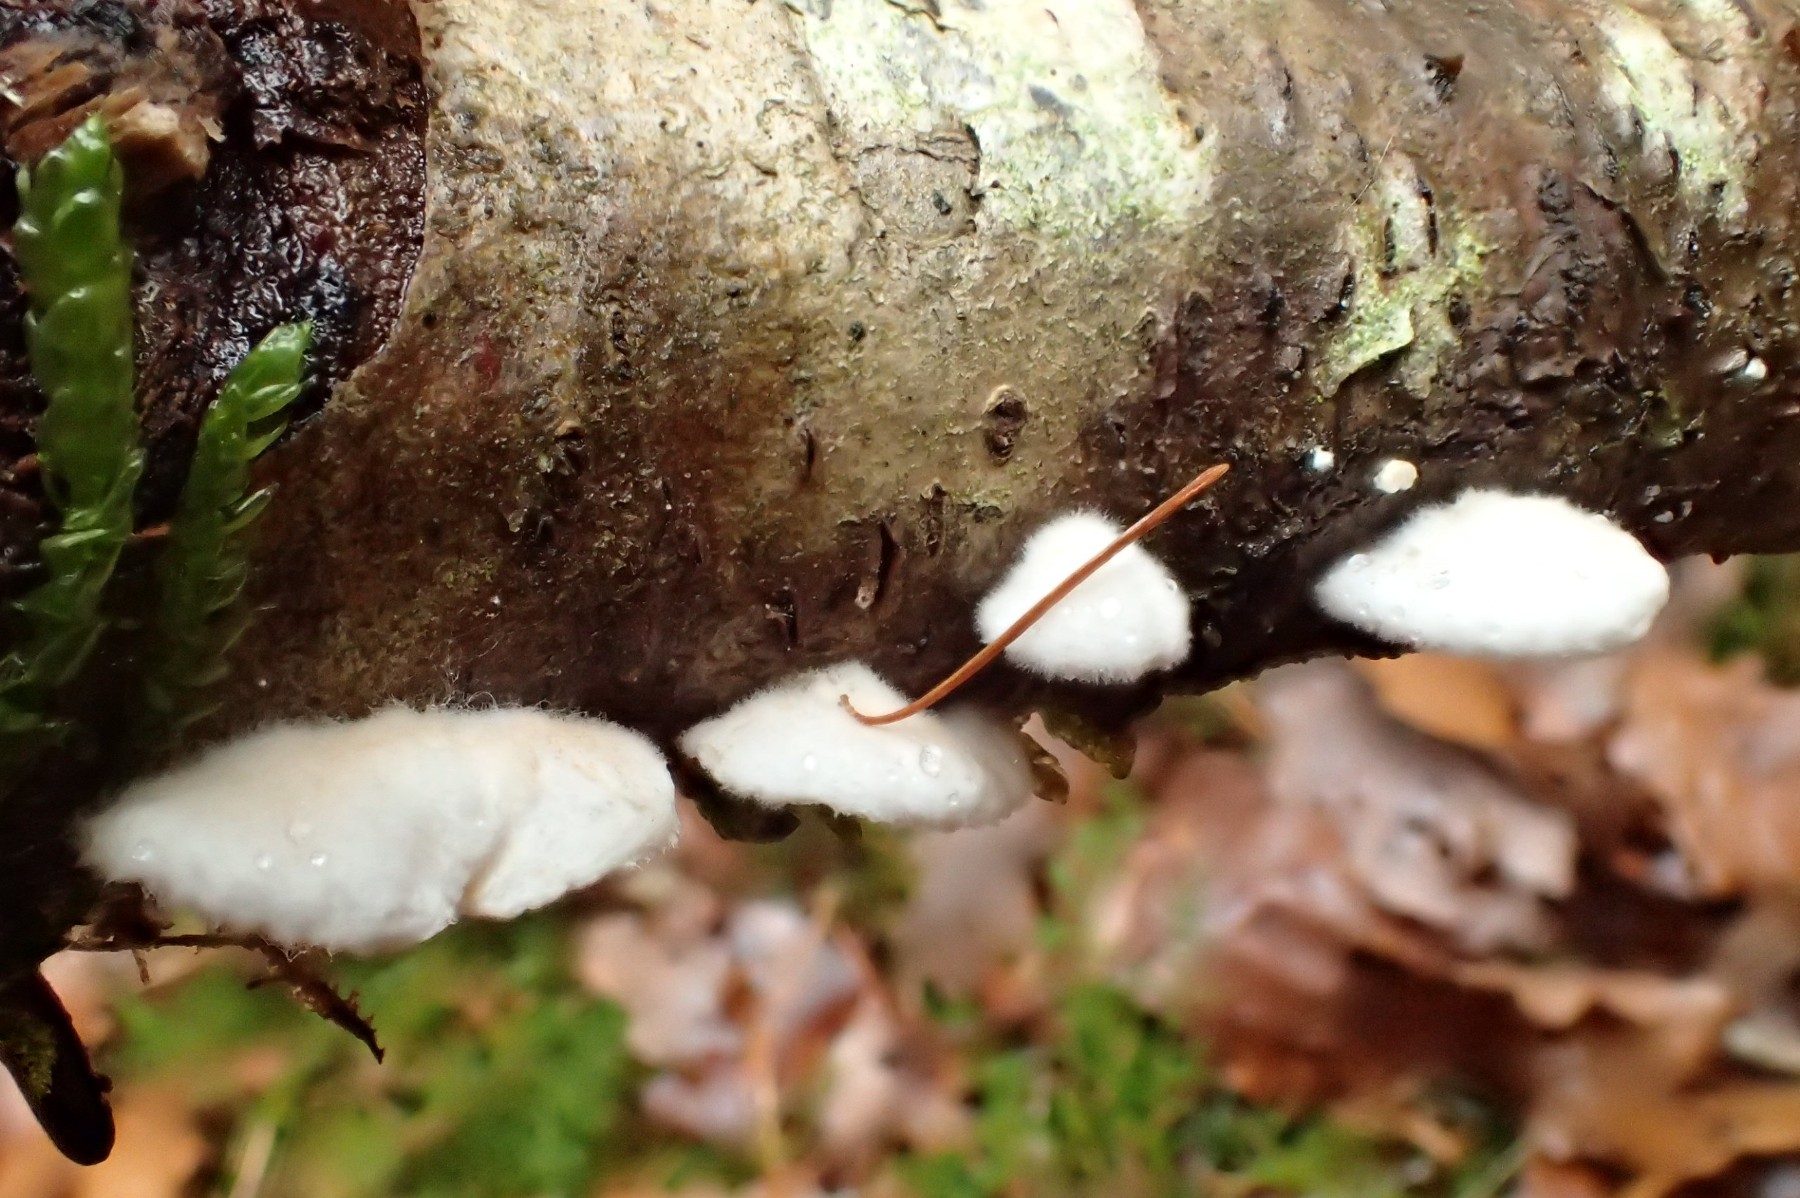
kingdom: Fungi
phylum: Basidiomycota
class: Agaricomycetes
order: Agaricales
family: Crepidotaceae
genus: Crepidotus
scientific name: Crepidotus variabilis
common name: forskelligformet muslingesvamp
